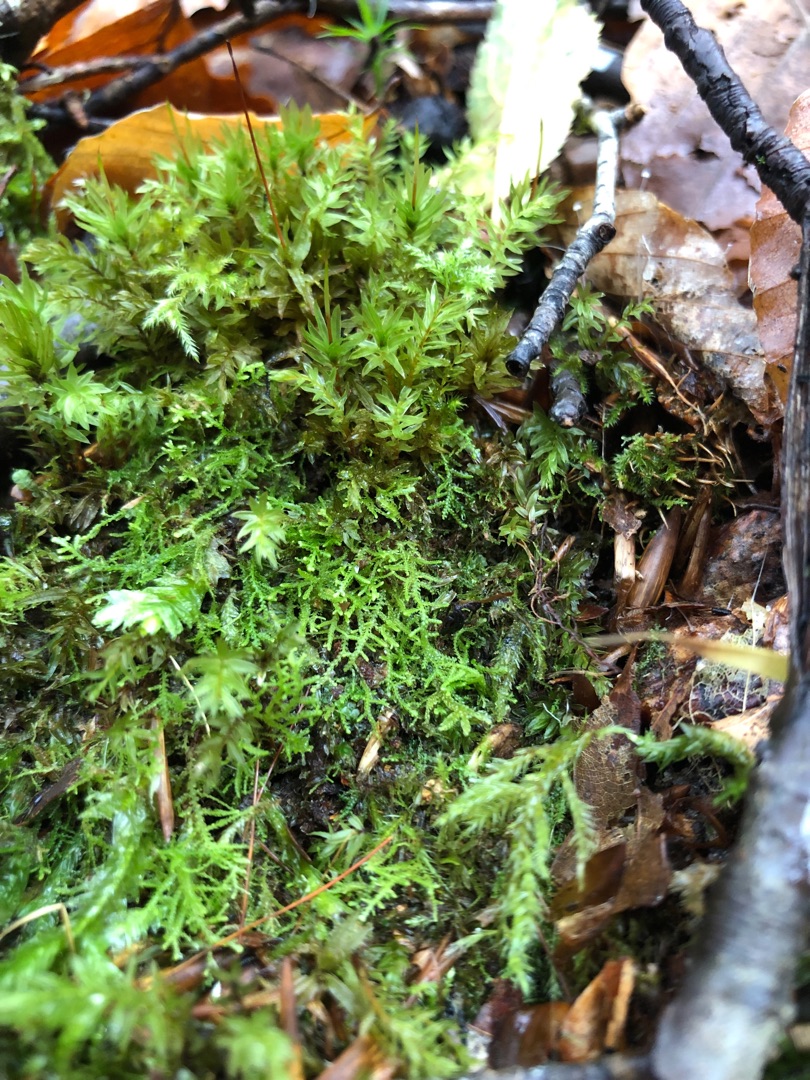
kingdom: Plantae
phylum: Marchantiophyta
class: Jungermanniopsida
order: Jungermanniales
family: Lepidoziaceae
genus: Lepidozia
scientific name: Lepidozia reptans
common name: Krybende fingermos
